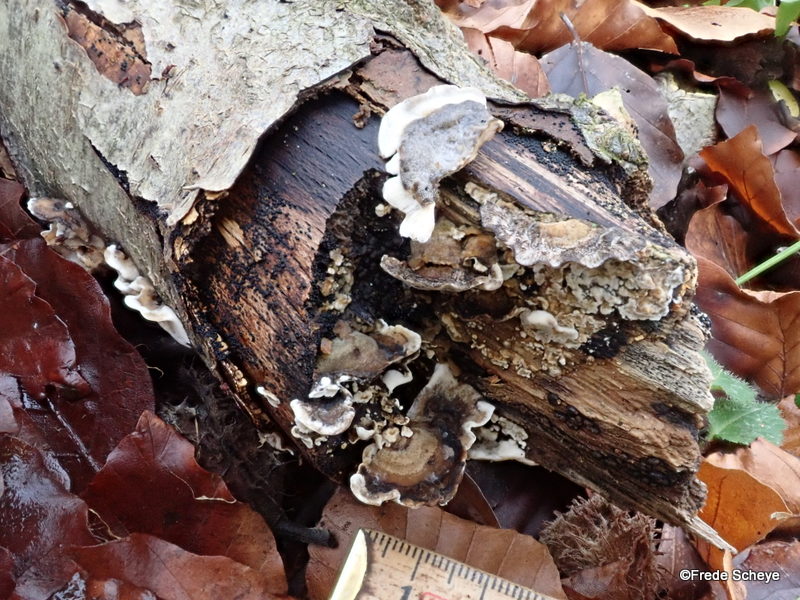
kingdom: Fungi
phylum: Basidiomycota
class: Agaricomycetes
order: Polyporales
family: Phanerochaetaceae
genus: Bjerkandera
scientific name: Bjerkandera adusta
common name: sveden sodporesvamp
